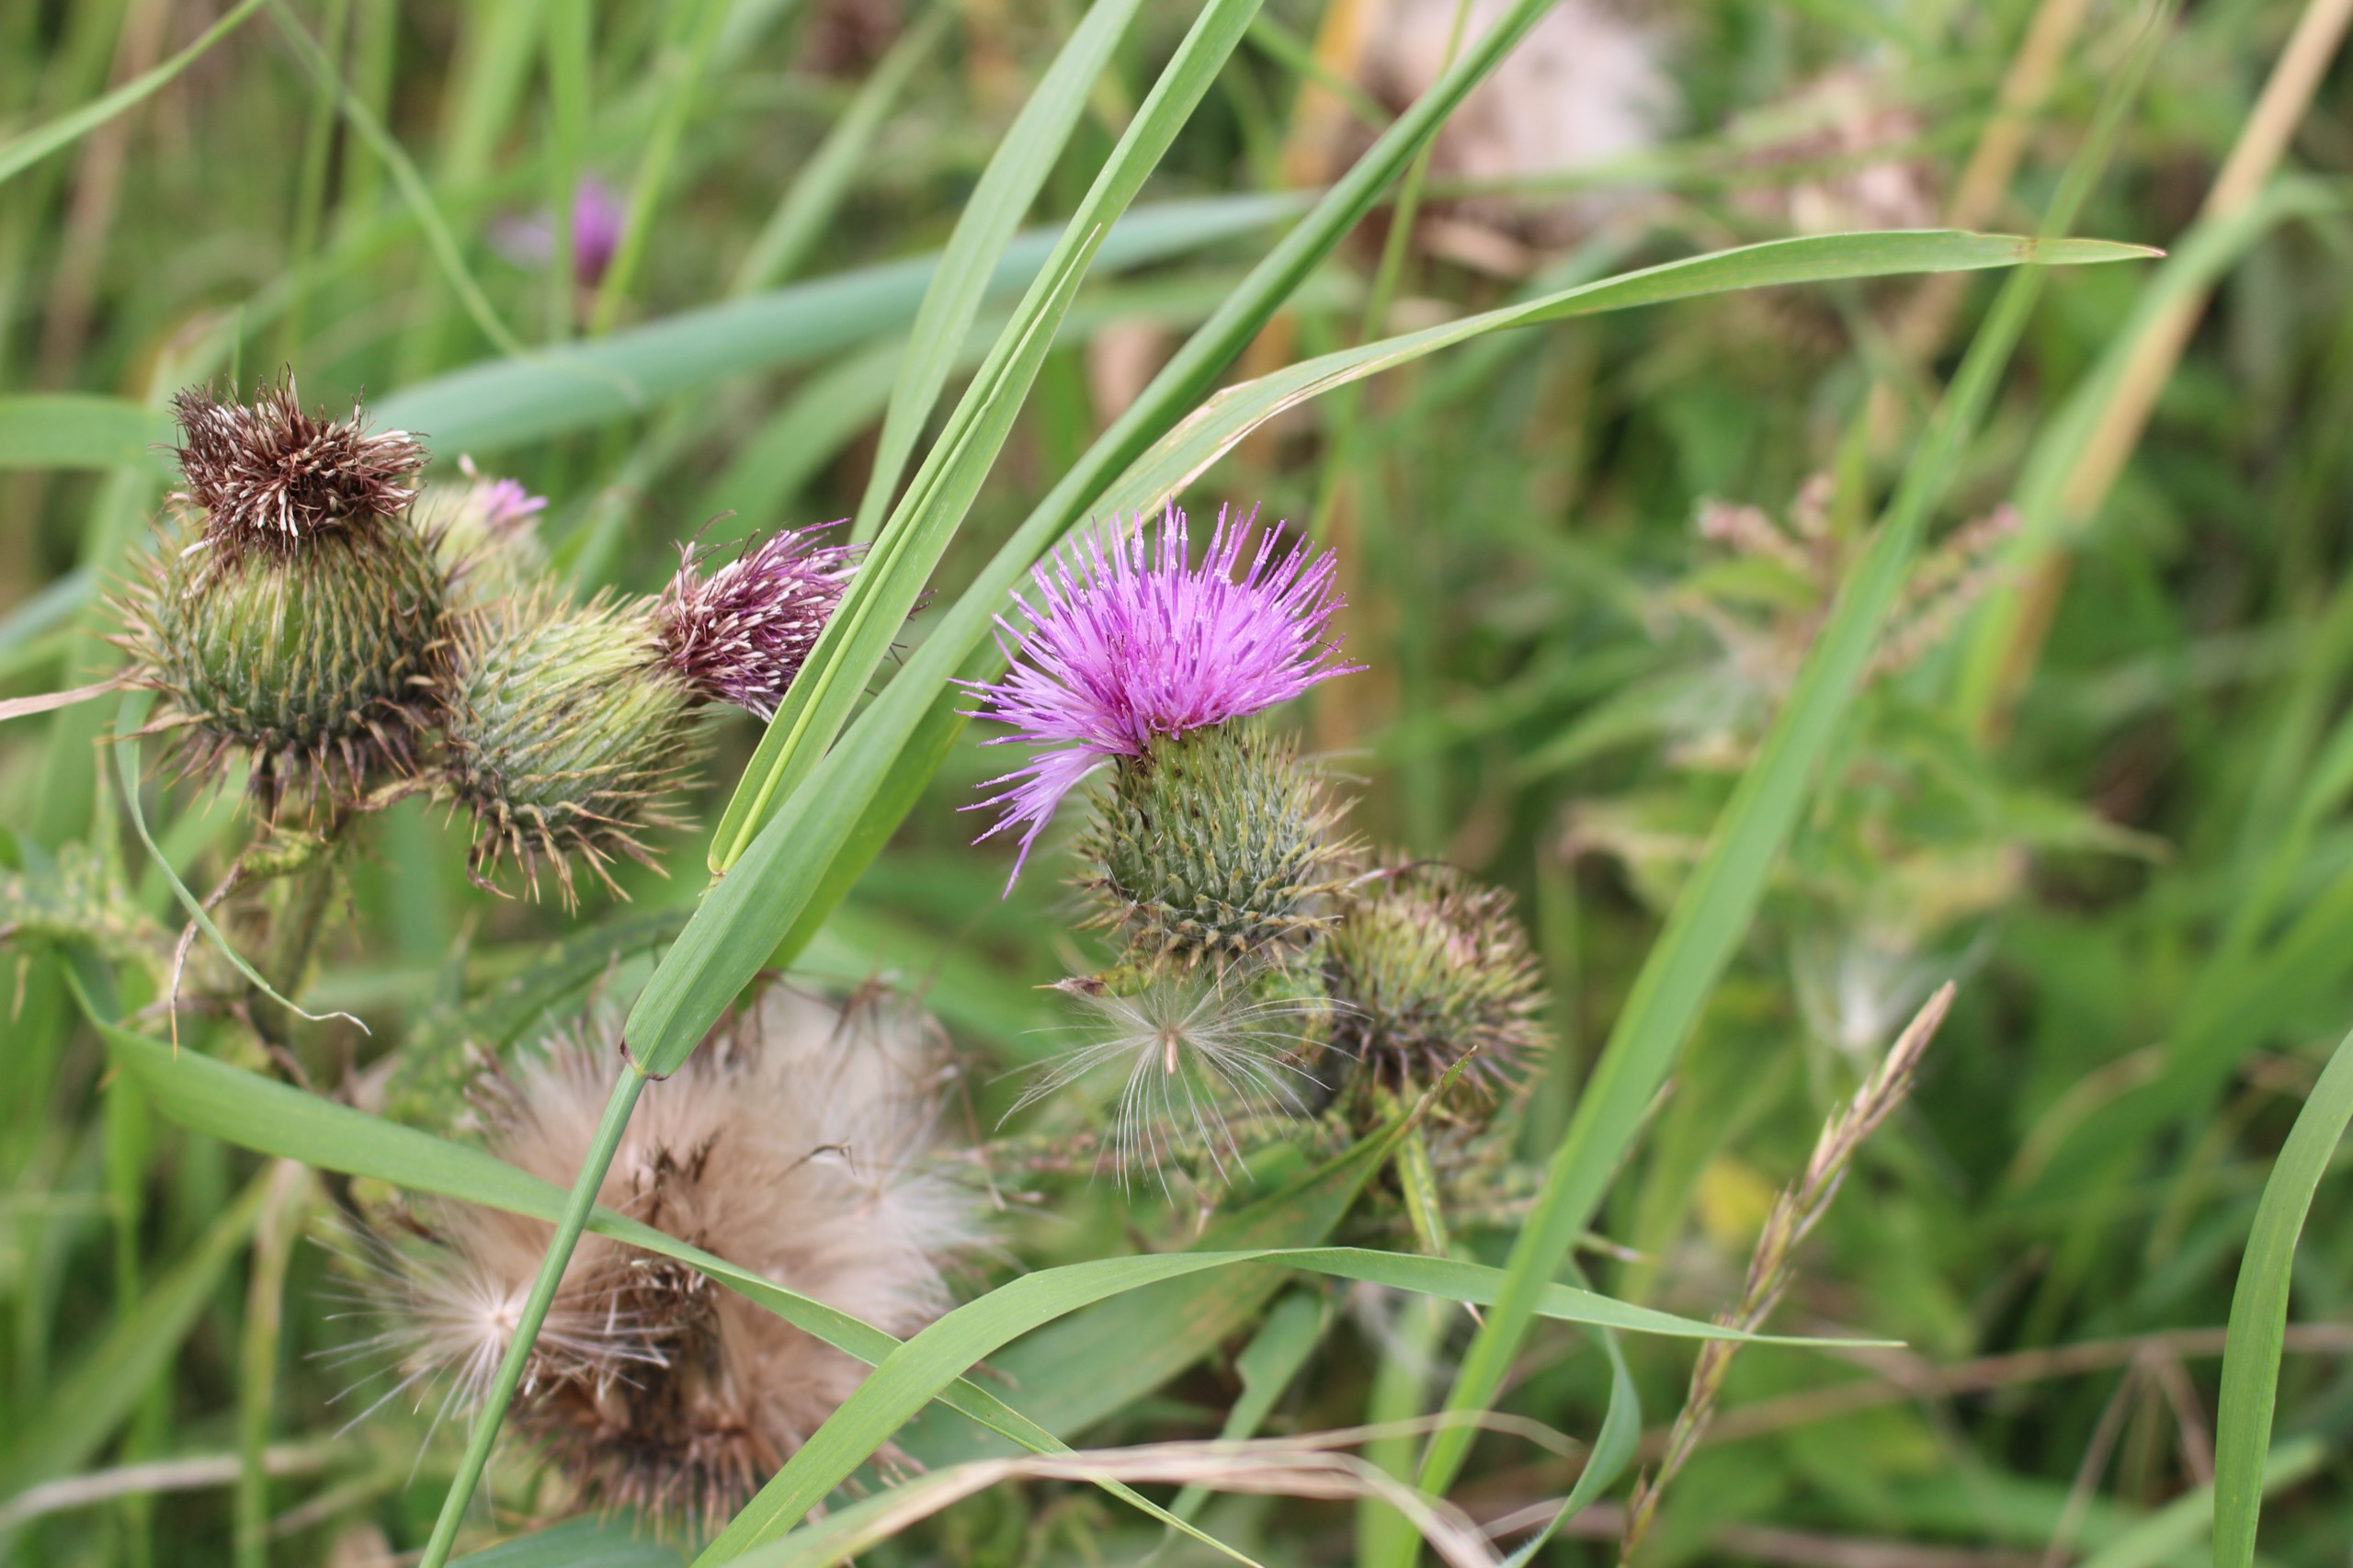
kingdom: Plantae
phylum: Tracheophyta
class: Magnoliopsida
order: Asterales
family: Asteraceae
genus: Cirsium
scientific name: Cirsium vulgare
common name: Horse-tidsel
